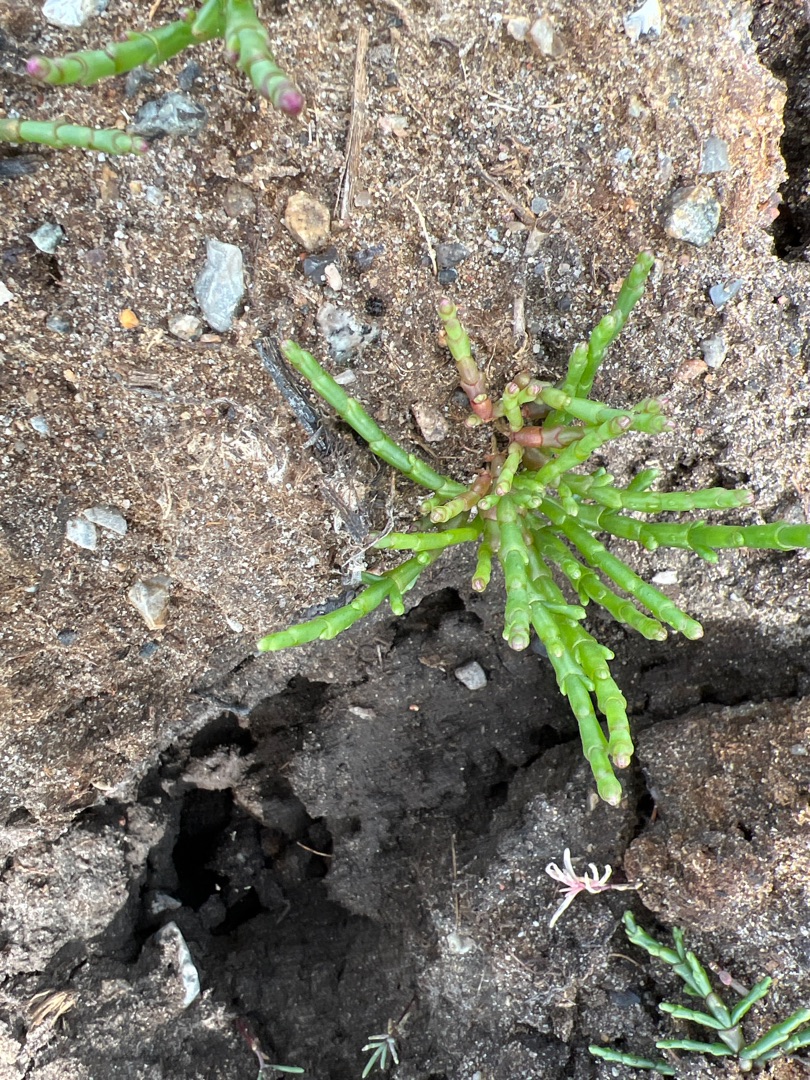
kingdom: Plantae
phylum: Tracheophyta
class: Magnoliopsida
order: Caryophyllales
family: Amaranthaceae
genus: Salicornia
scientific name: Salicornia europaea
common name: Almindelig salturt
